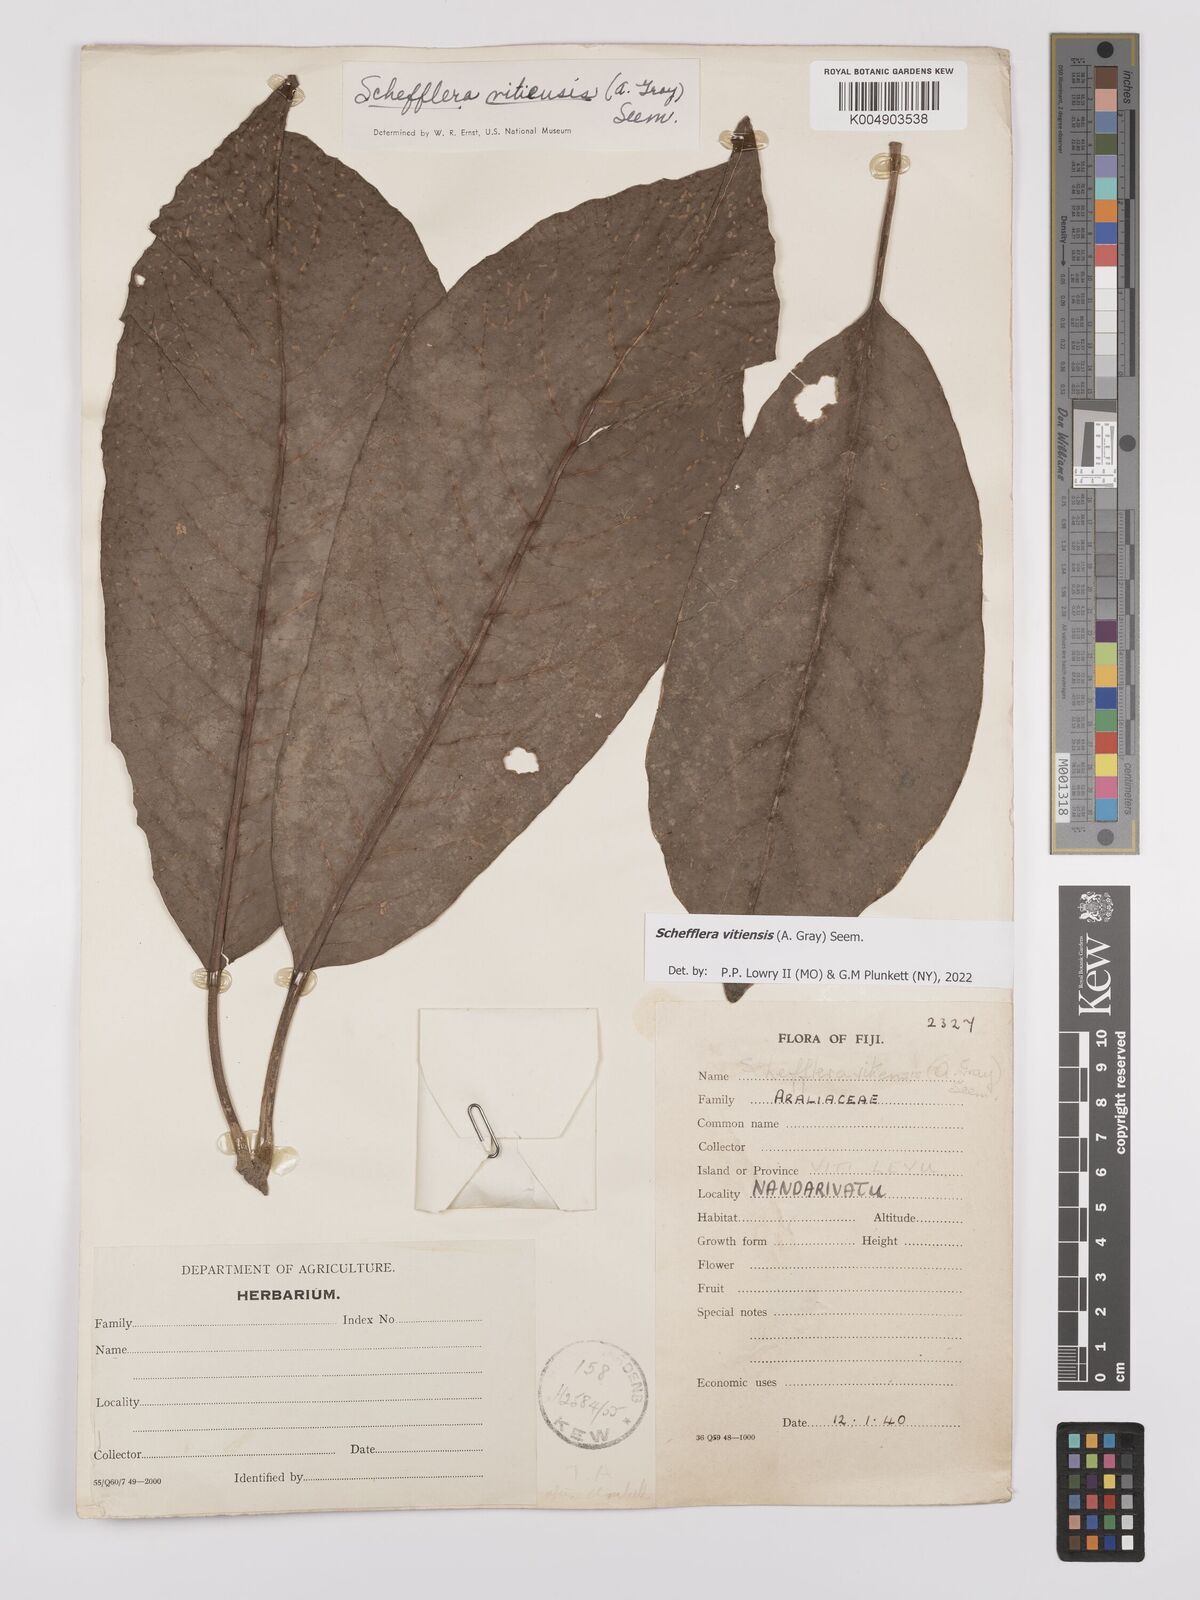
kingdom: Plantae
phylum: Tracheophyta
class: Magnoliopsida
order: Apiales
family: Araliaceae
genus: Schefflera
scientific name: Schefflera vitiensis
